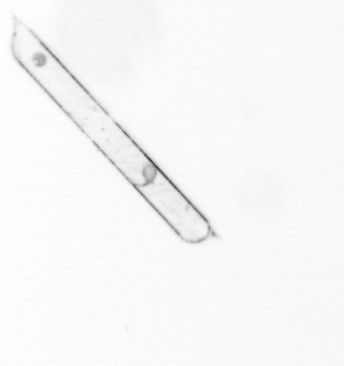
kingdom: Chromista
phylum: Ochrophyta
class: Bacillariophyceae
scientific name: Bacillariophyceae
